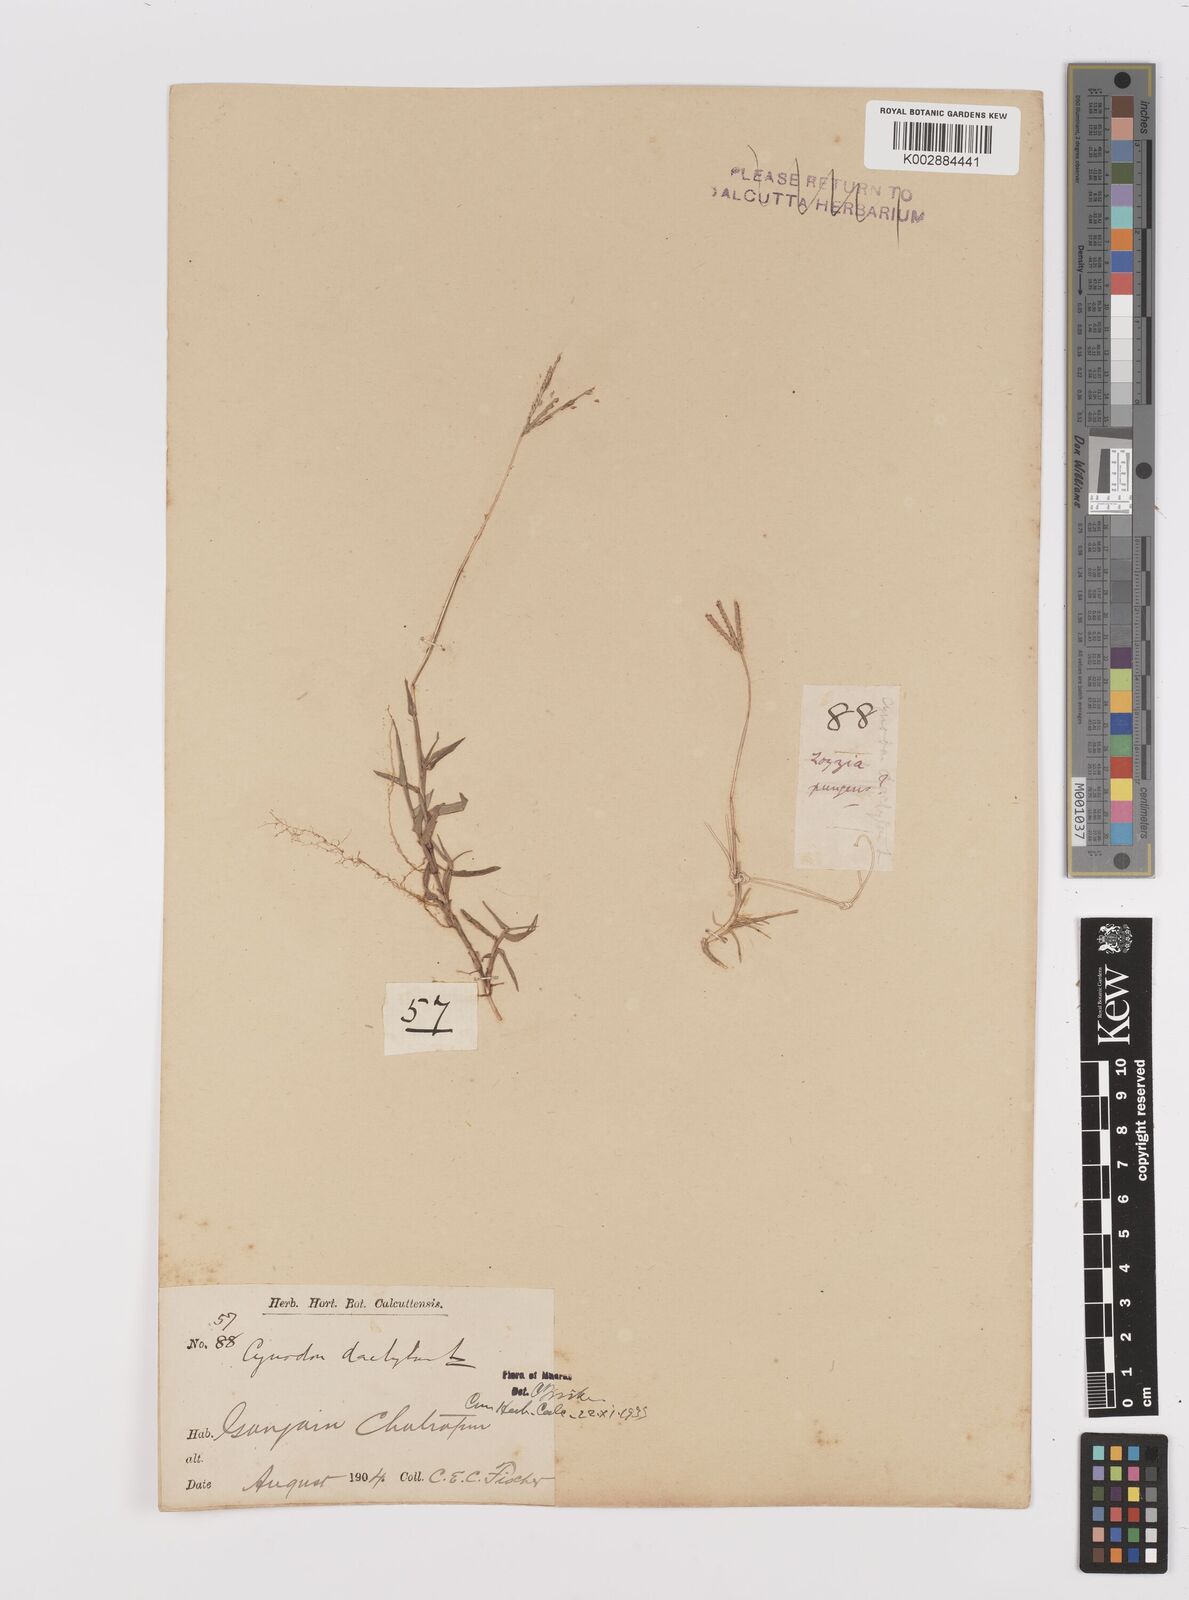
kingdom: Plantae
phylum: Tracheophyta
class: Liliopsida
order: Poales
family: Poaceae
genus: Cynodon
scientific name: Cynodon dactylon
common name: Bermuda grass
